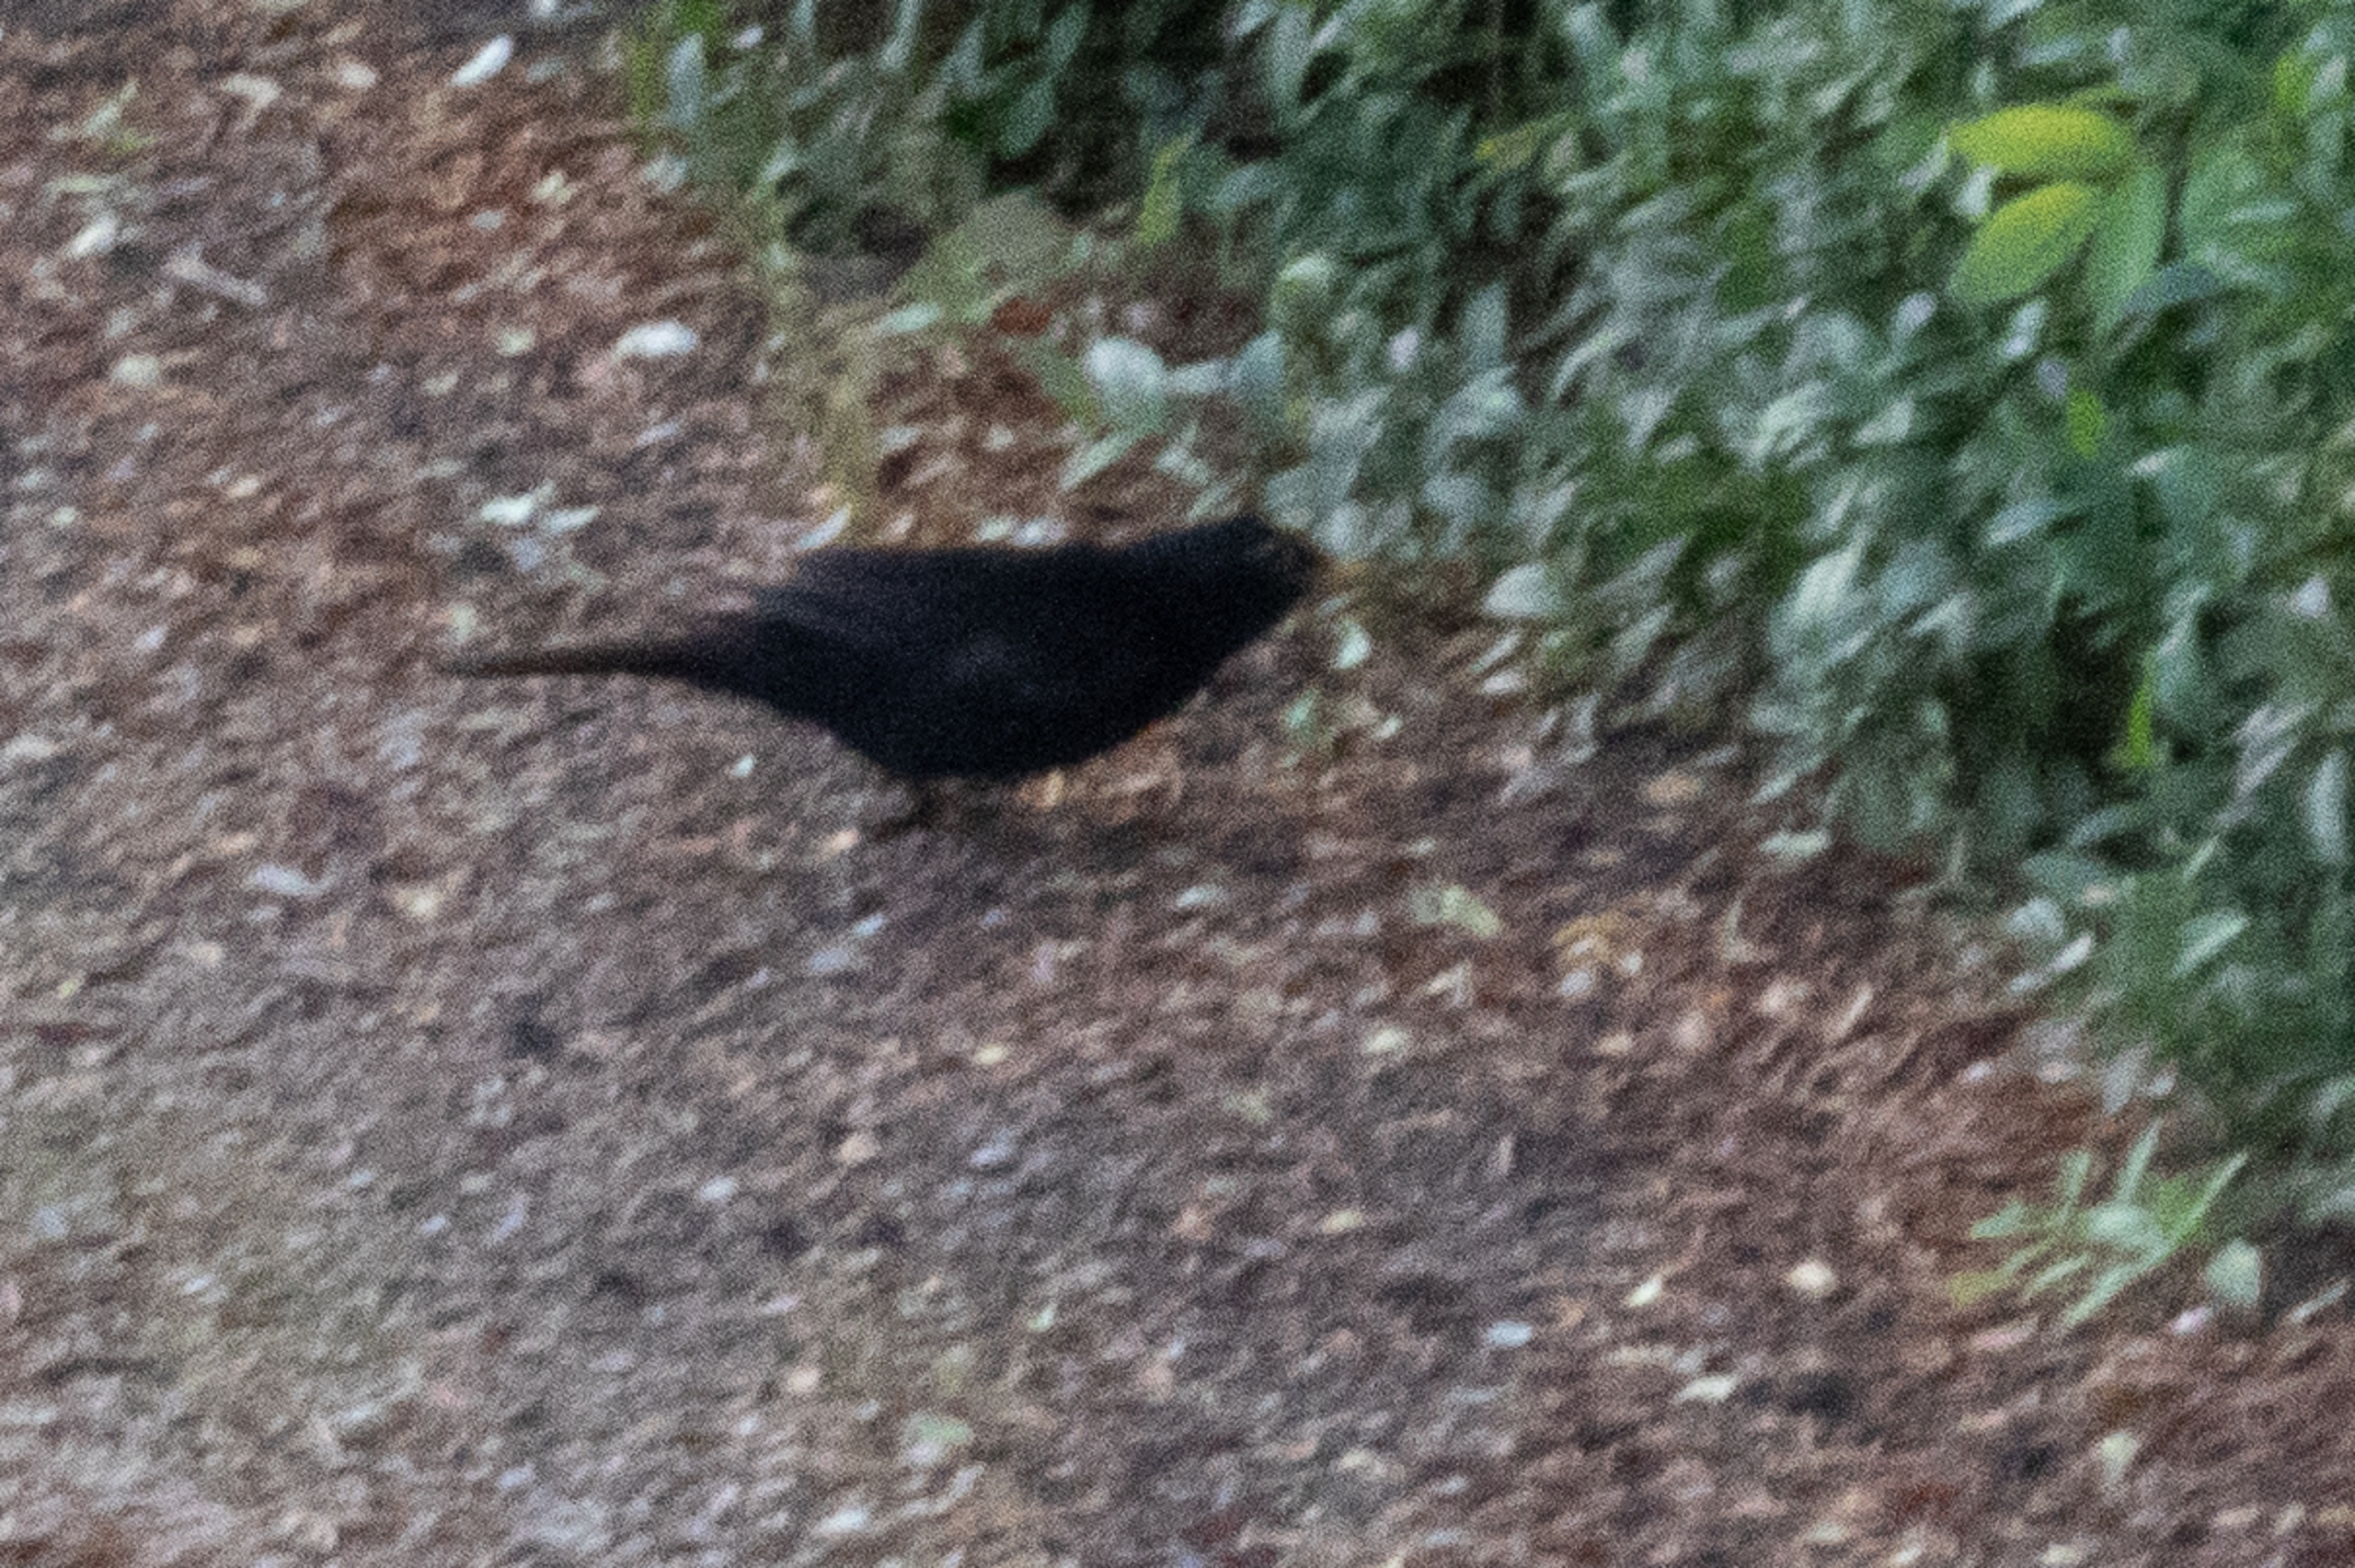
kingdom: Animalia
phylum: Chordata
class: Aves
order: Passeriformes
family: Turdidae
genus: Turdus
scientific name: Turdus merula
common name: Solsort
